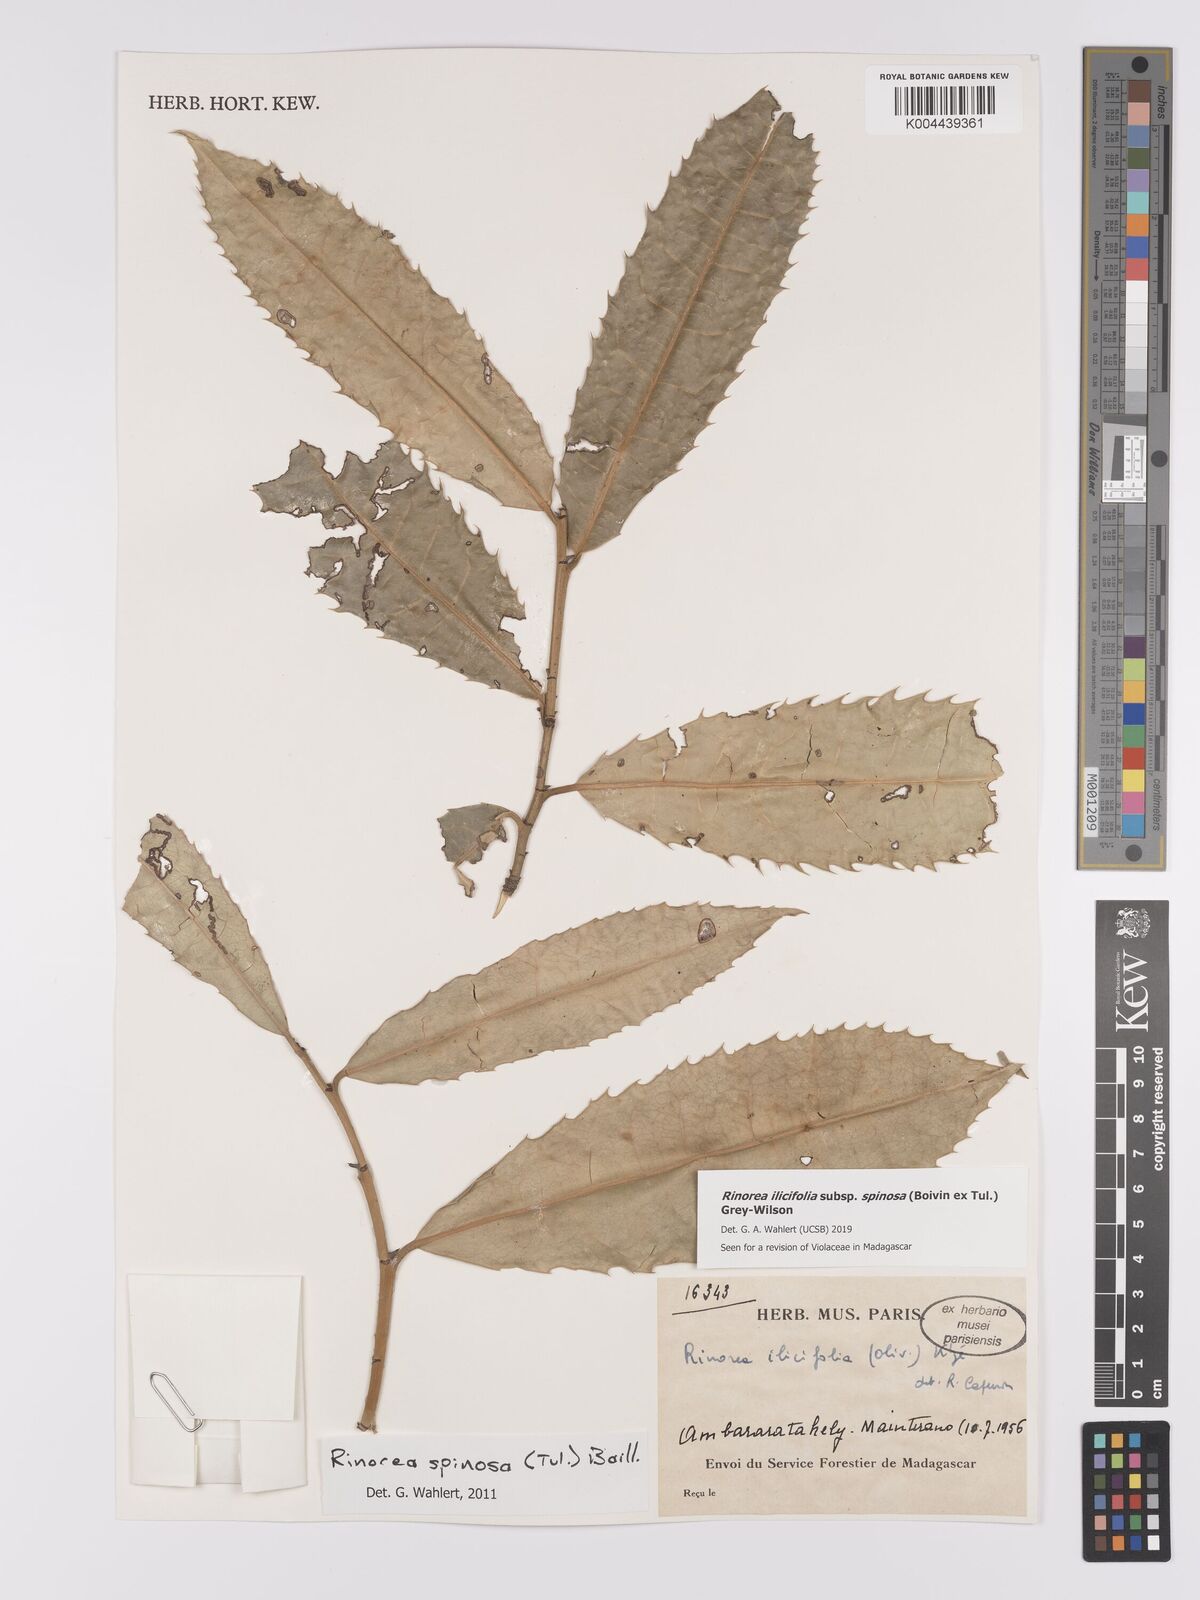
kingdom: Plantae
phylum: Tracheophyta
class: Magnoliopsida
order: Malpighiales
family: Violaceae
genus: Rinorea
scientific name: Rinorea spinosa
